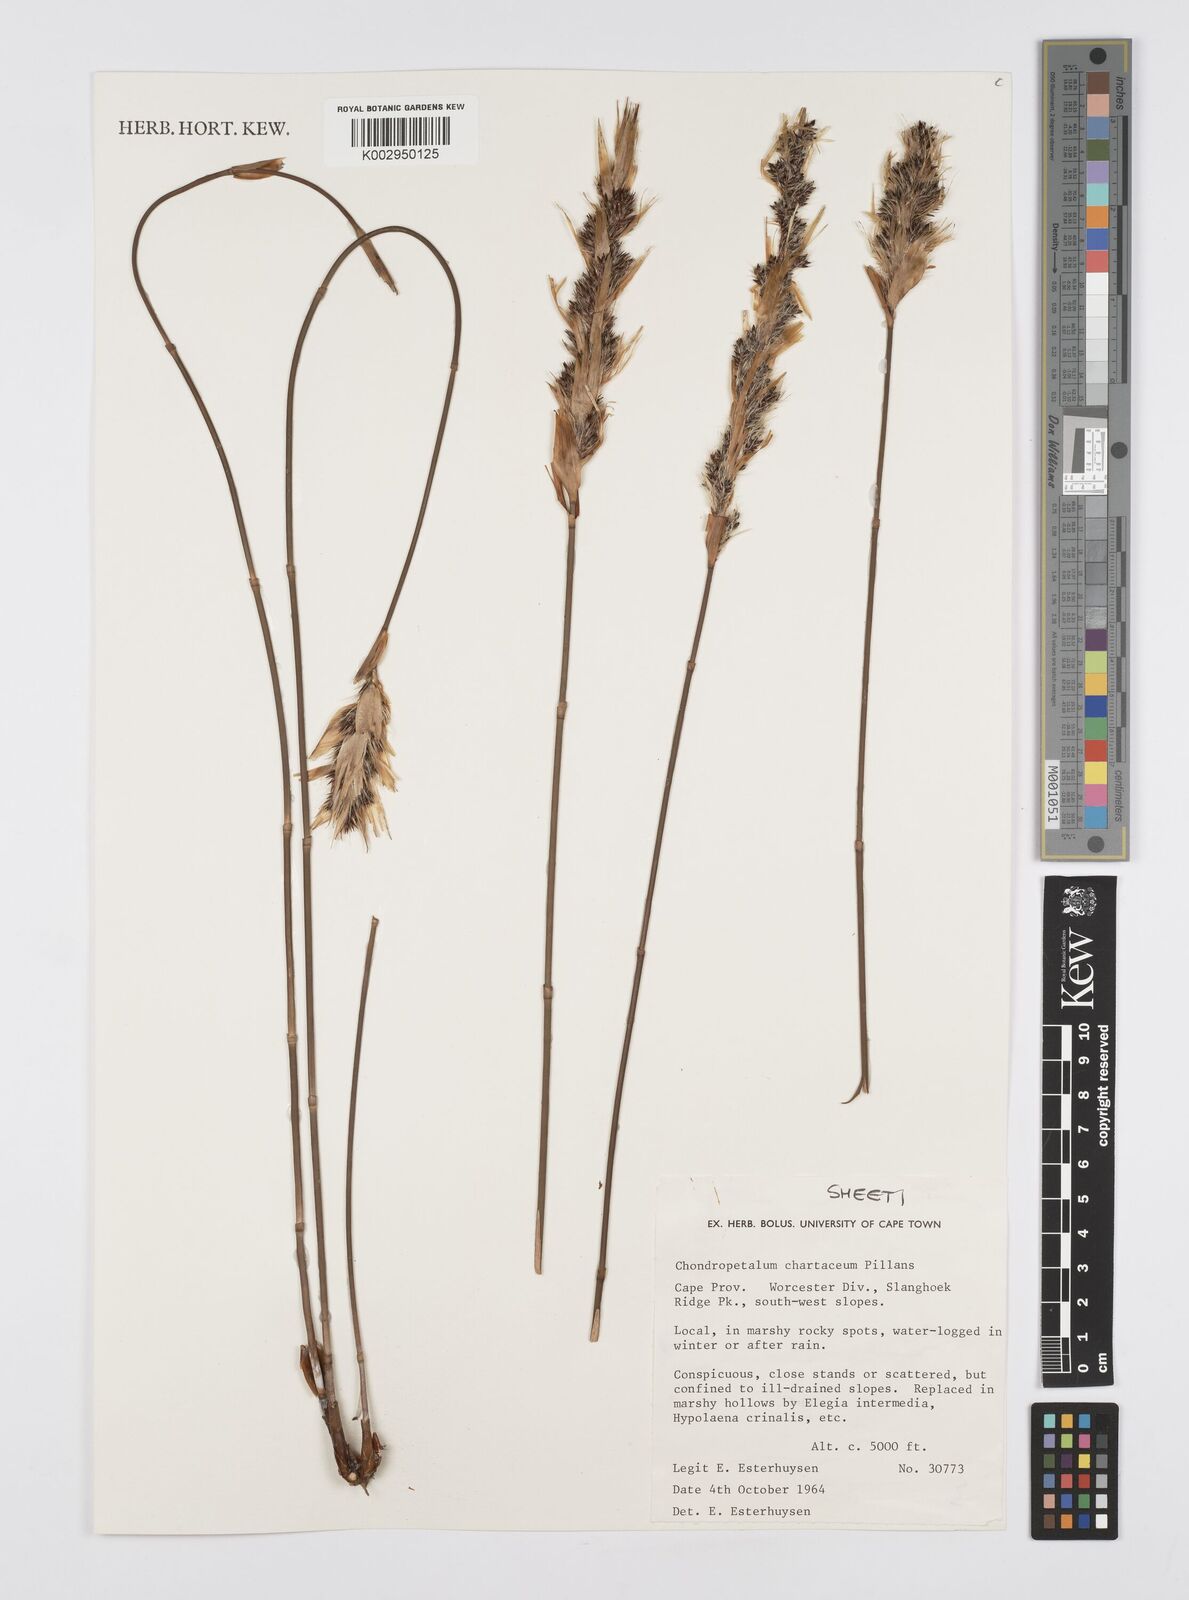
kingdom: Plantae
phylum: Tracheophyta
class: Liliopsida
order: Poales
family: Restionaceae
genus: Askidiosperma
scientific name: Askidiosperma chartaceum
